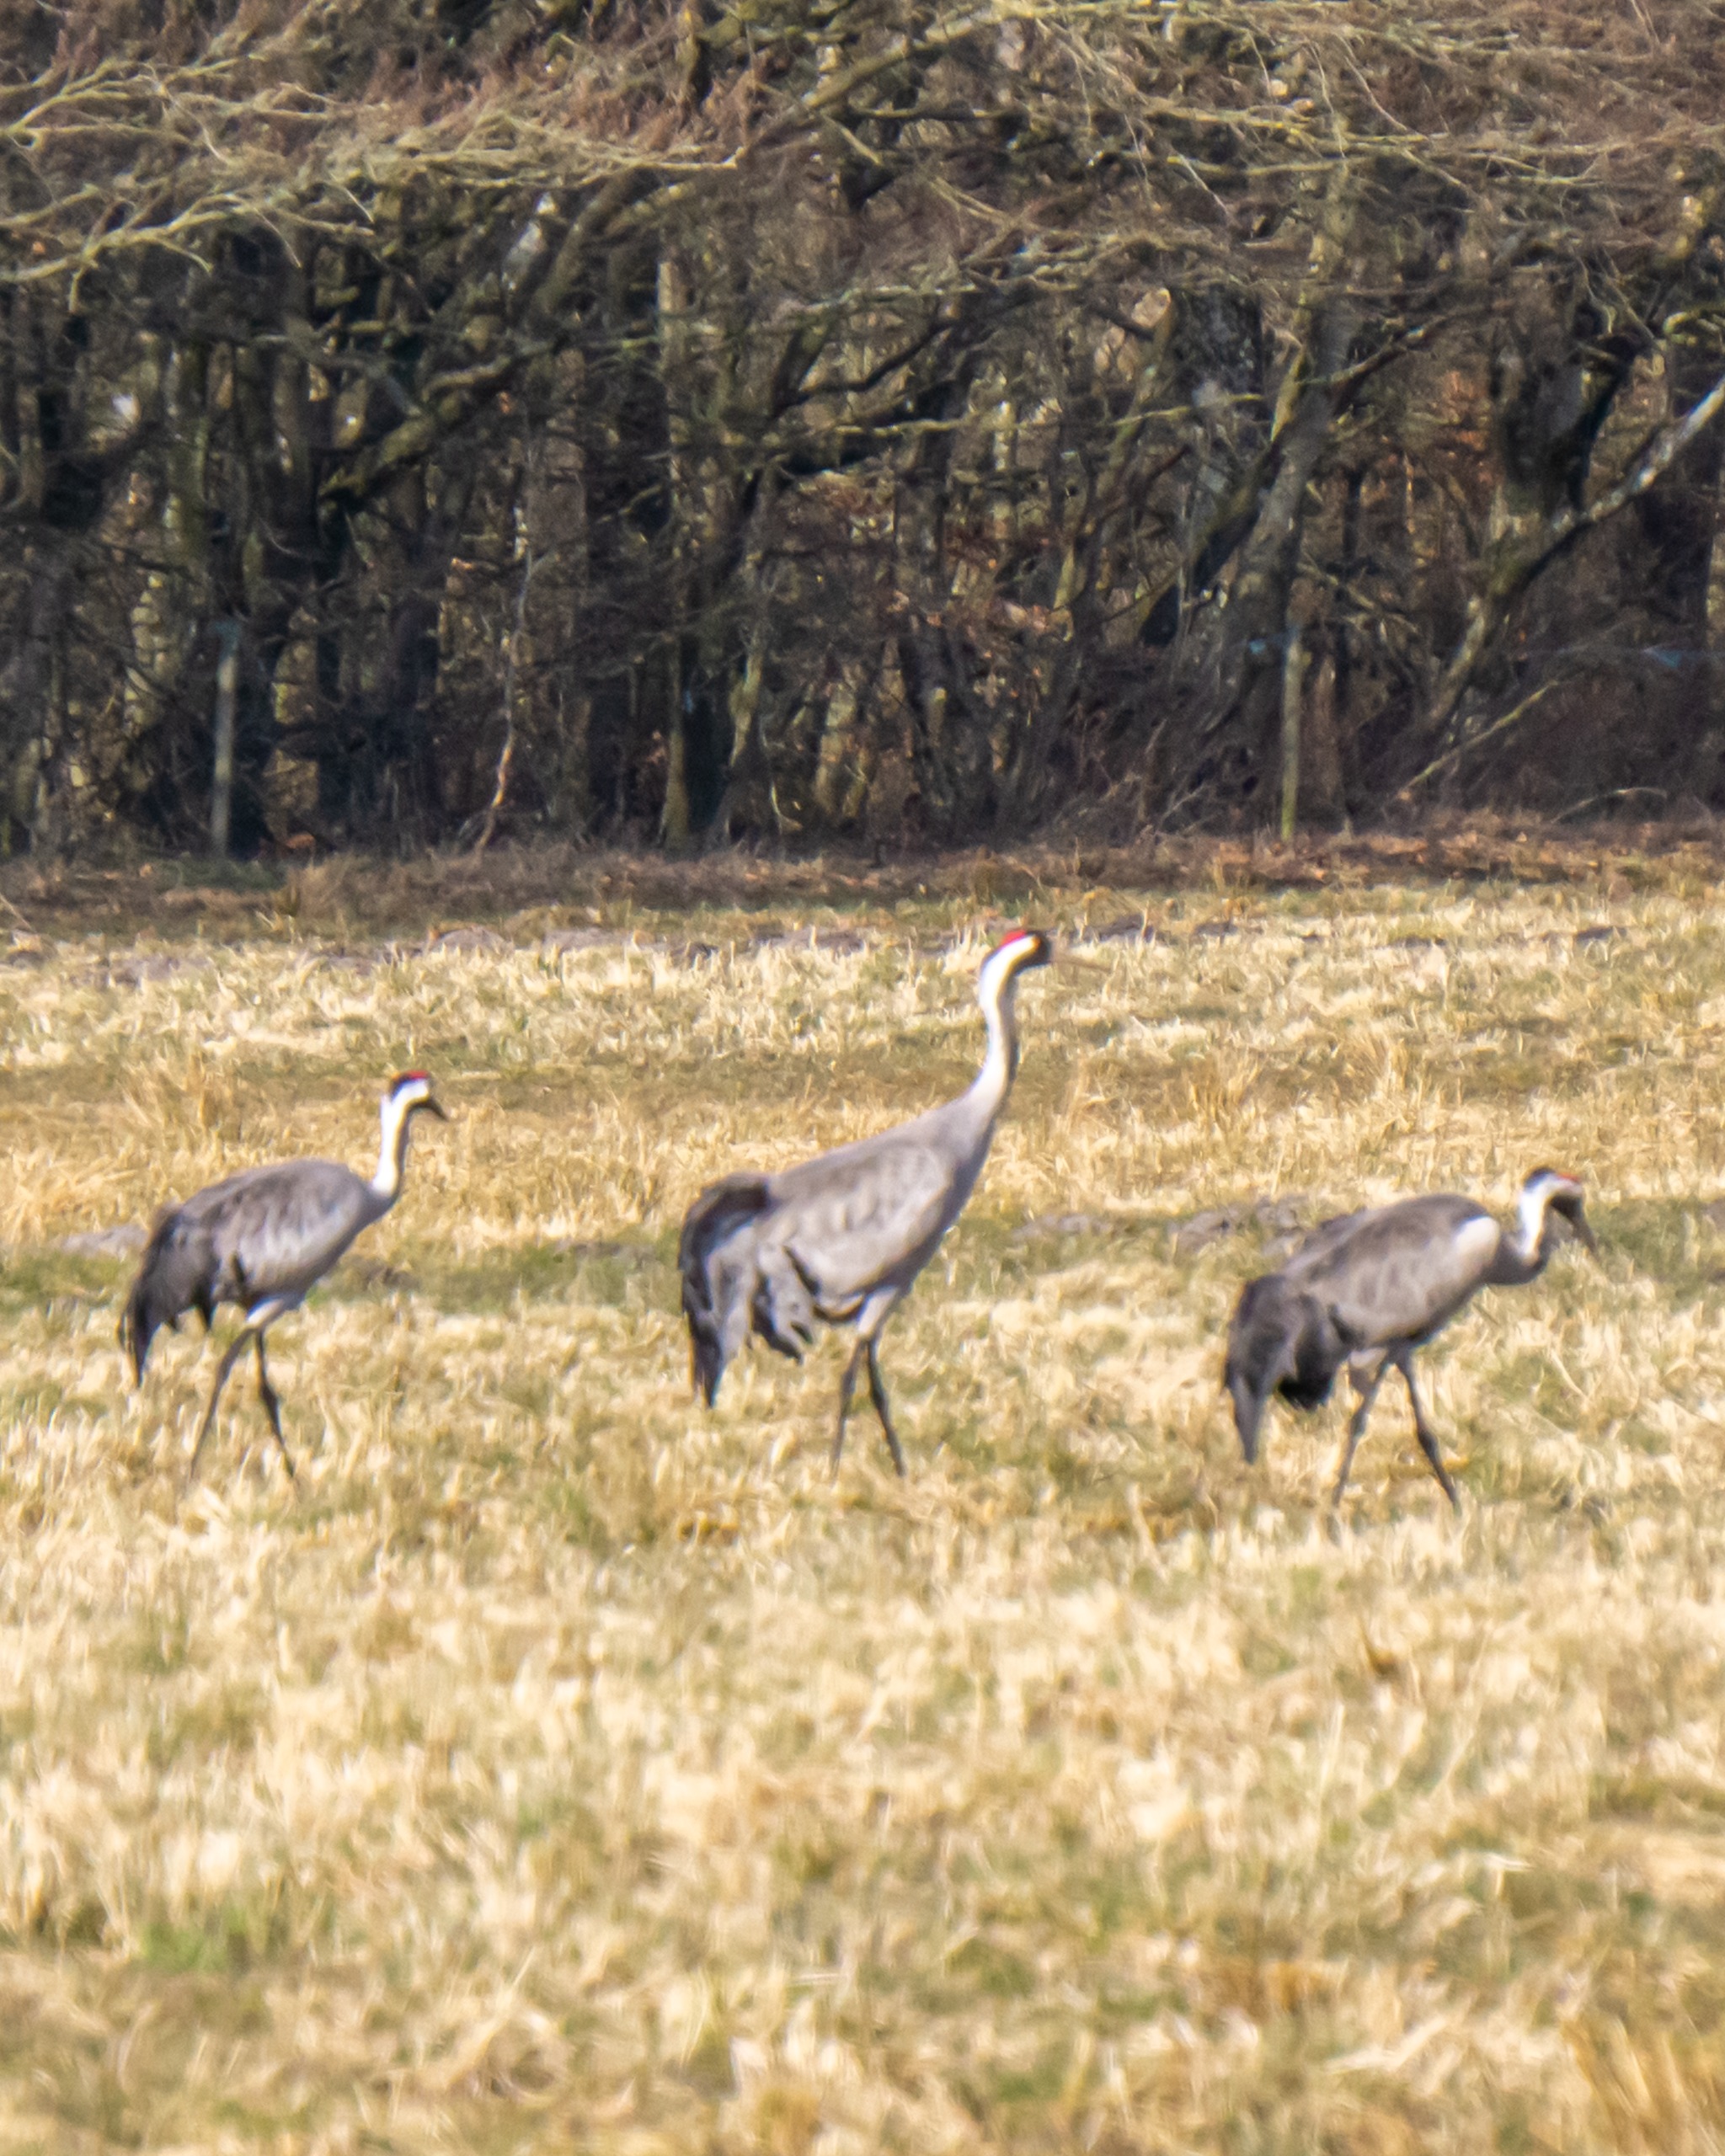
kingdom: Animalia
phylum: Chordata
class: Aves
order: Gruiformes
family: Gruidae
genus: Grus
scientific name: Grus grus
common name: Trane
